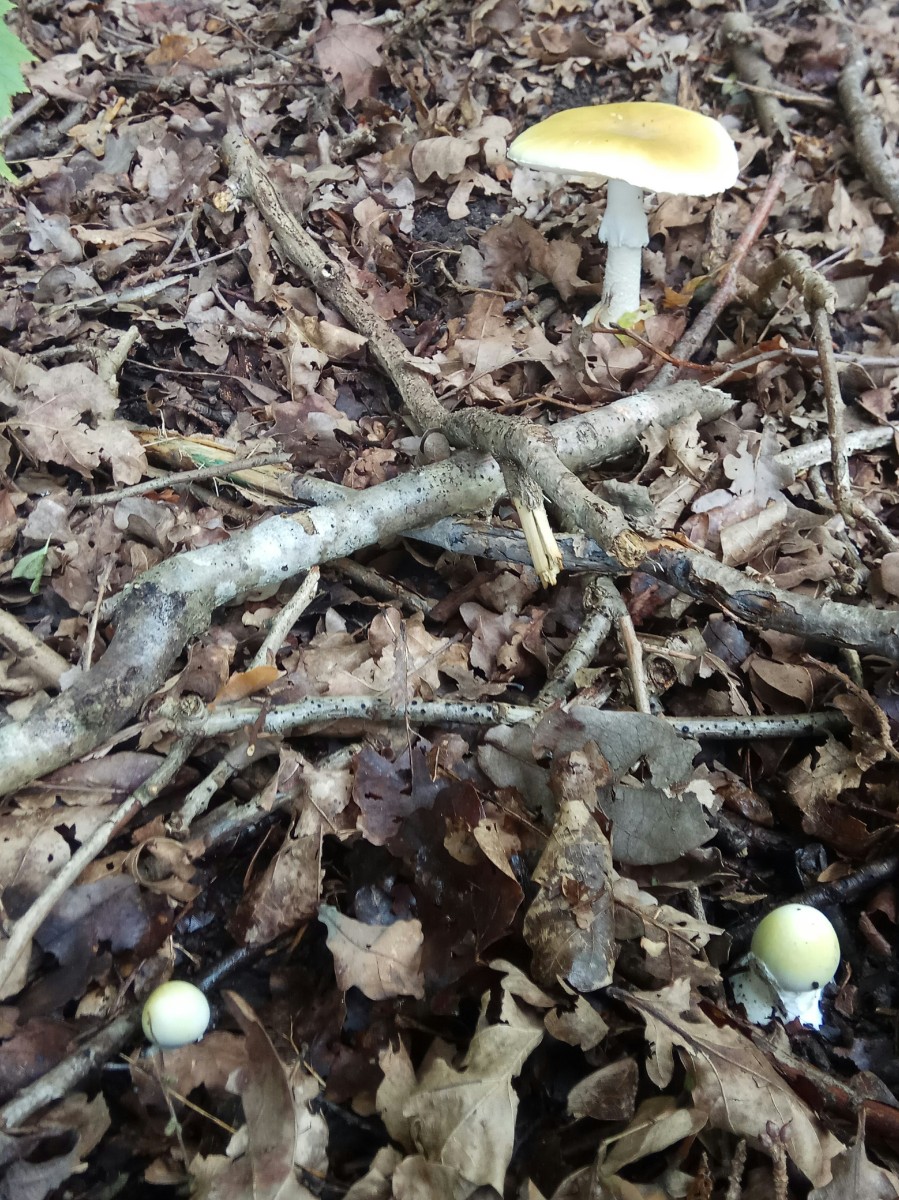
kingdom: Fungi
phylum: Basidiomycota
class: Agaricomycetes
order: Agaricales
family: Amanitaceae
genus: Amanita
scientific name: Amanita phalloides
